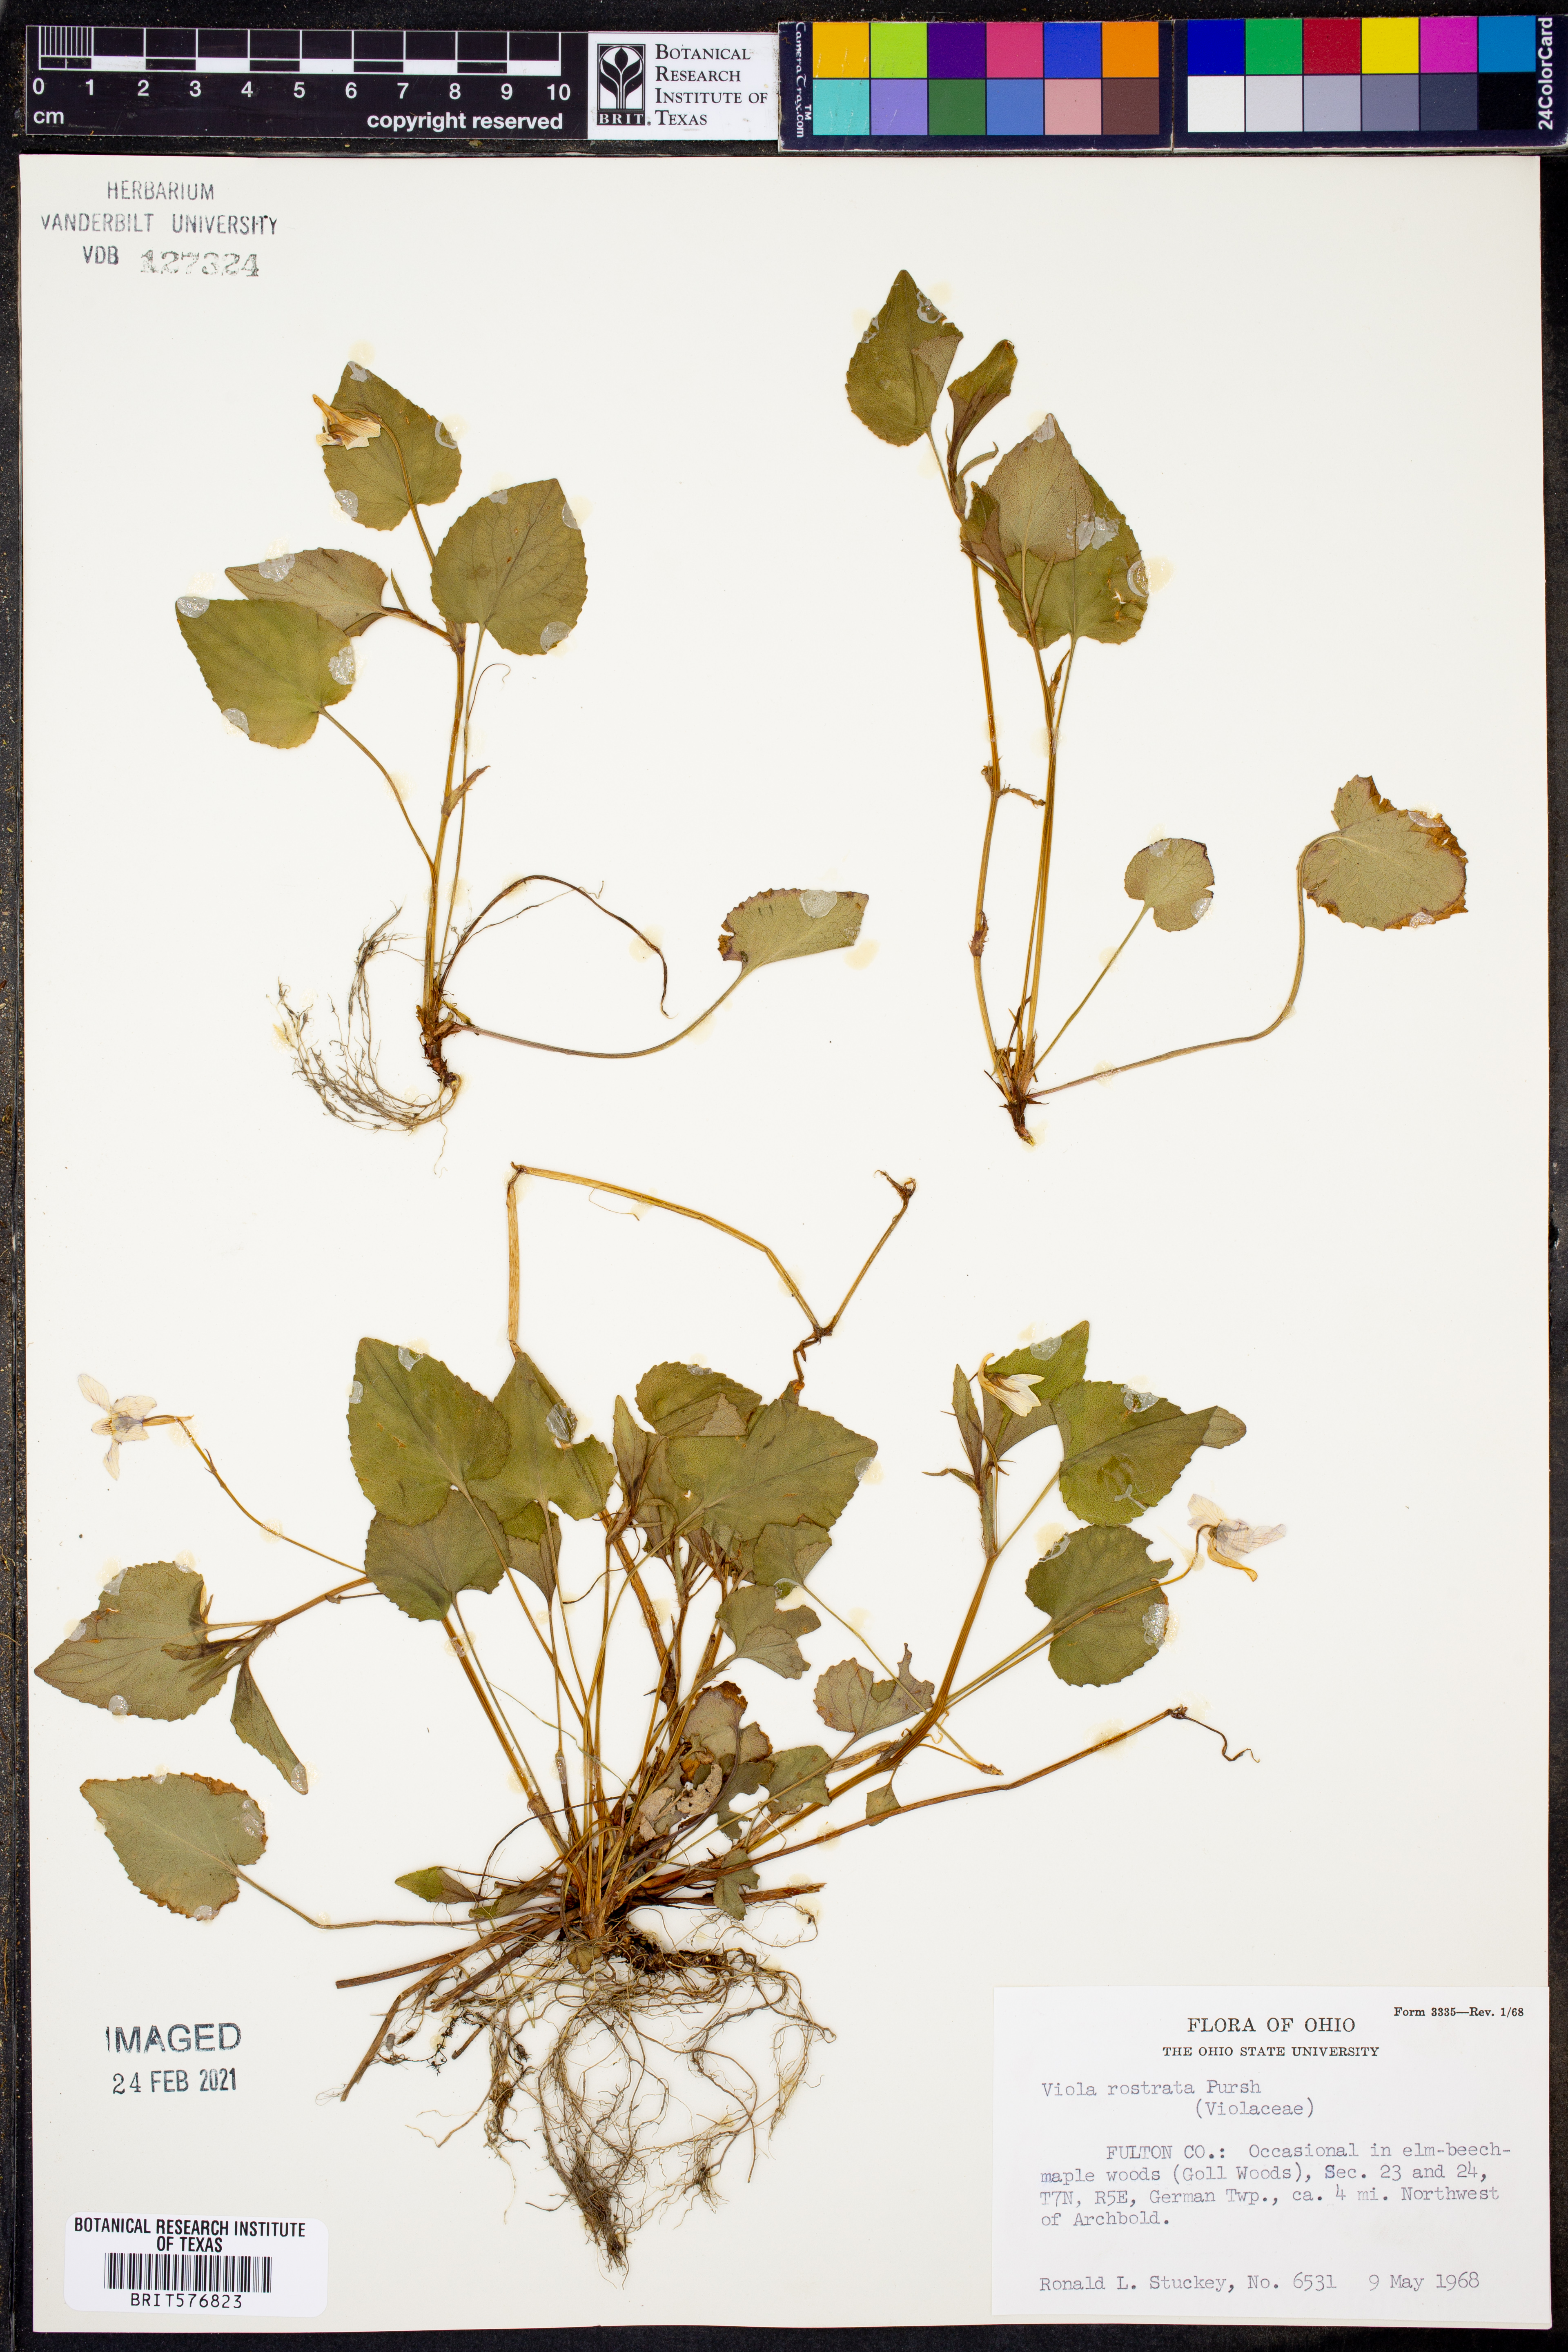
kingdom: Plantae
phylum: Tracheophyta
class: Magnoliopsida
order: Malpighiales
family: Violaceae
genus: Viola
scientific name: Viola rostrata
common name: Long-spur violet
